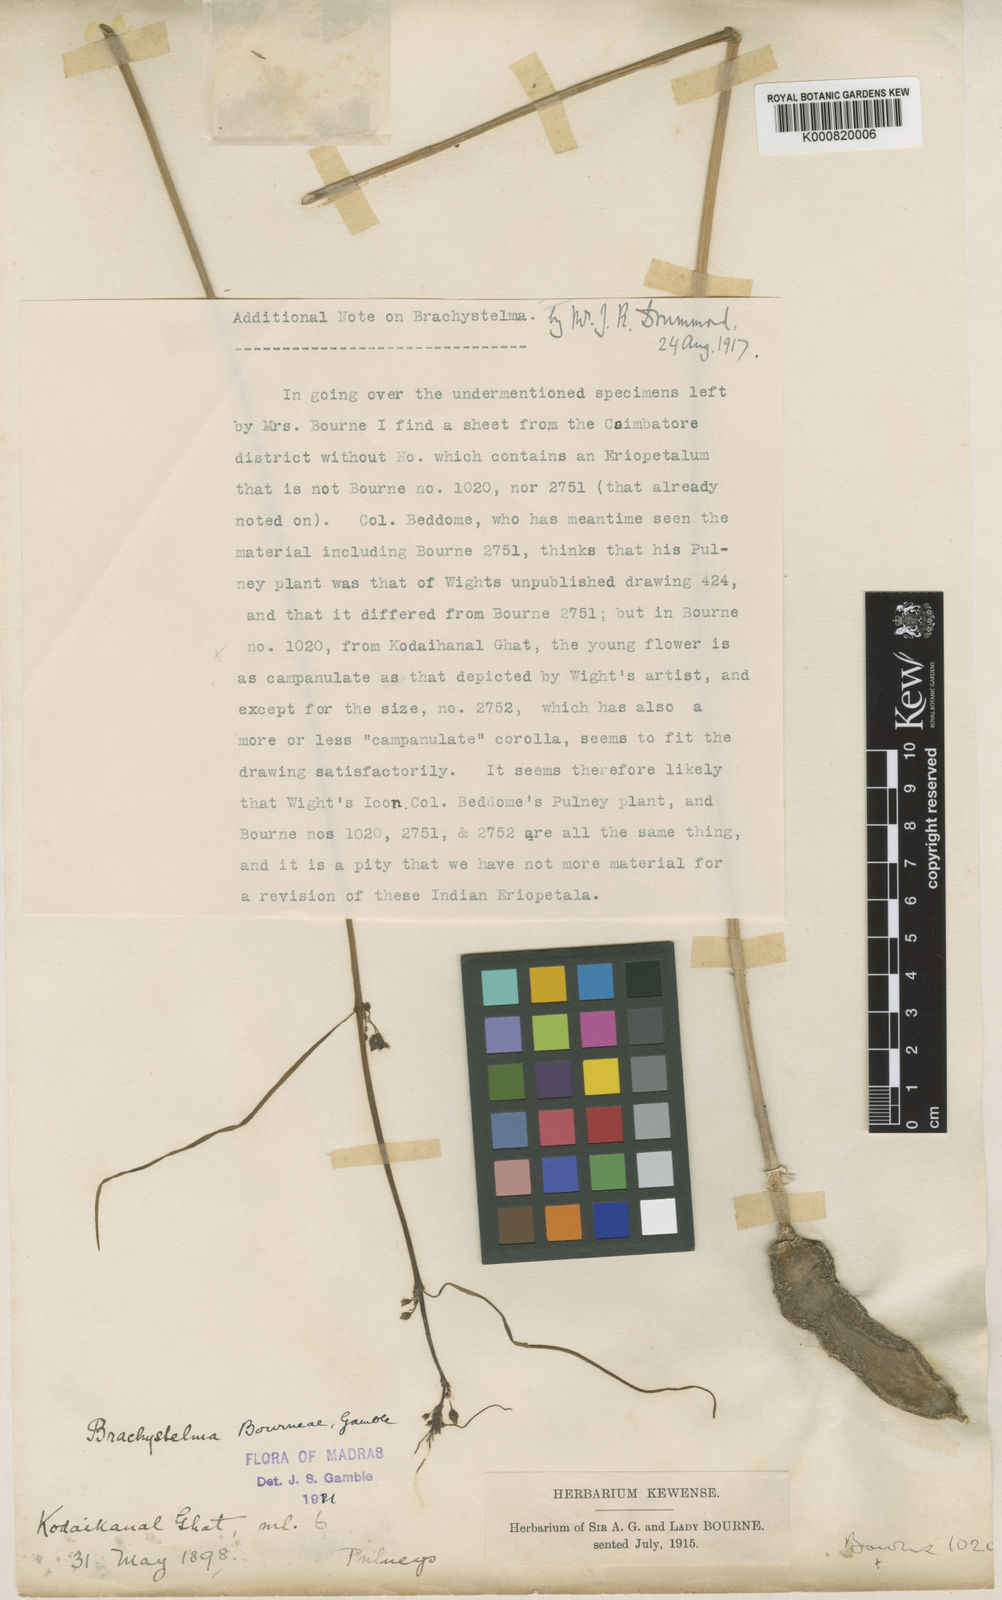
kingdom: Plantae
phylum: Tracheophyta
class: Magnoliopsida
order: Gentianales
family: Apocynaceae
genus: Ceropegia
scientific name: Ceropegia bourneae
